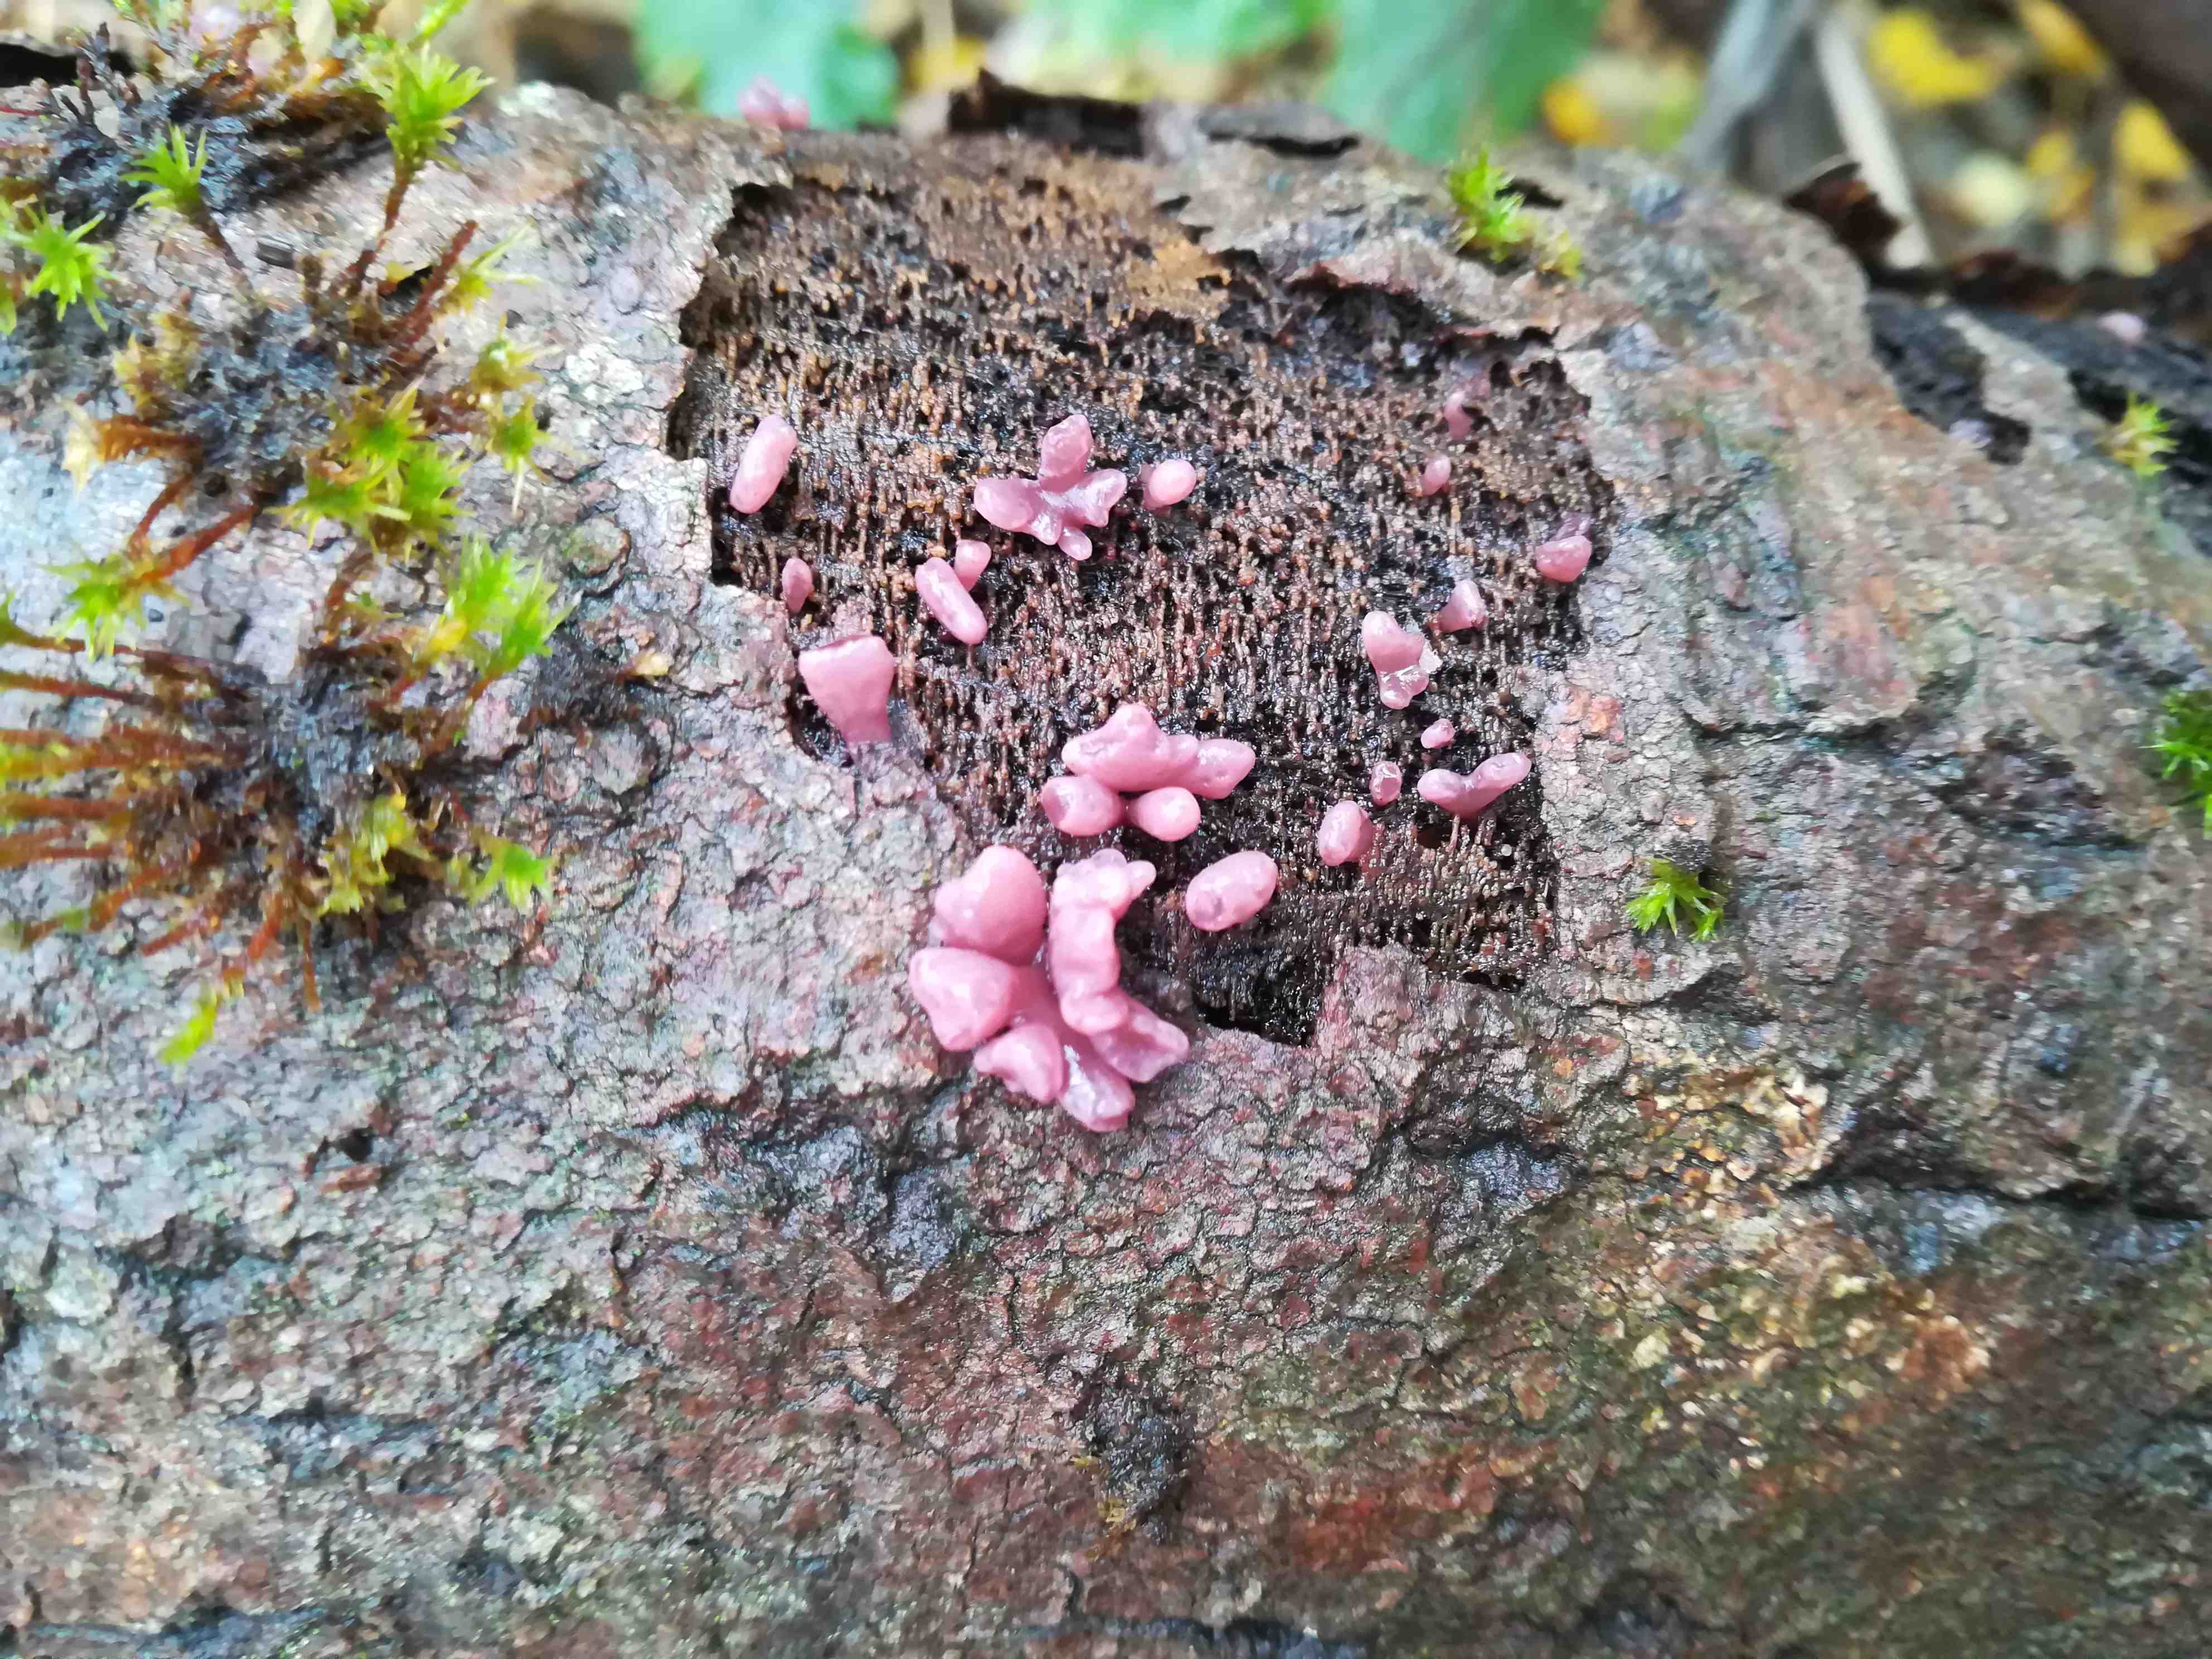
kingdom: Fungi
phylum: Ascomycota
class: Leotiomycetes
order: Helotiales
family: Gelatinodiscaceae
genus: Ascocoryne
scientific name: Ascocoryne sarcoides
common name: rødlilla sejskive
